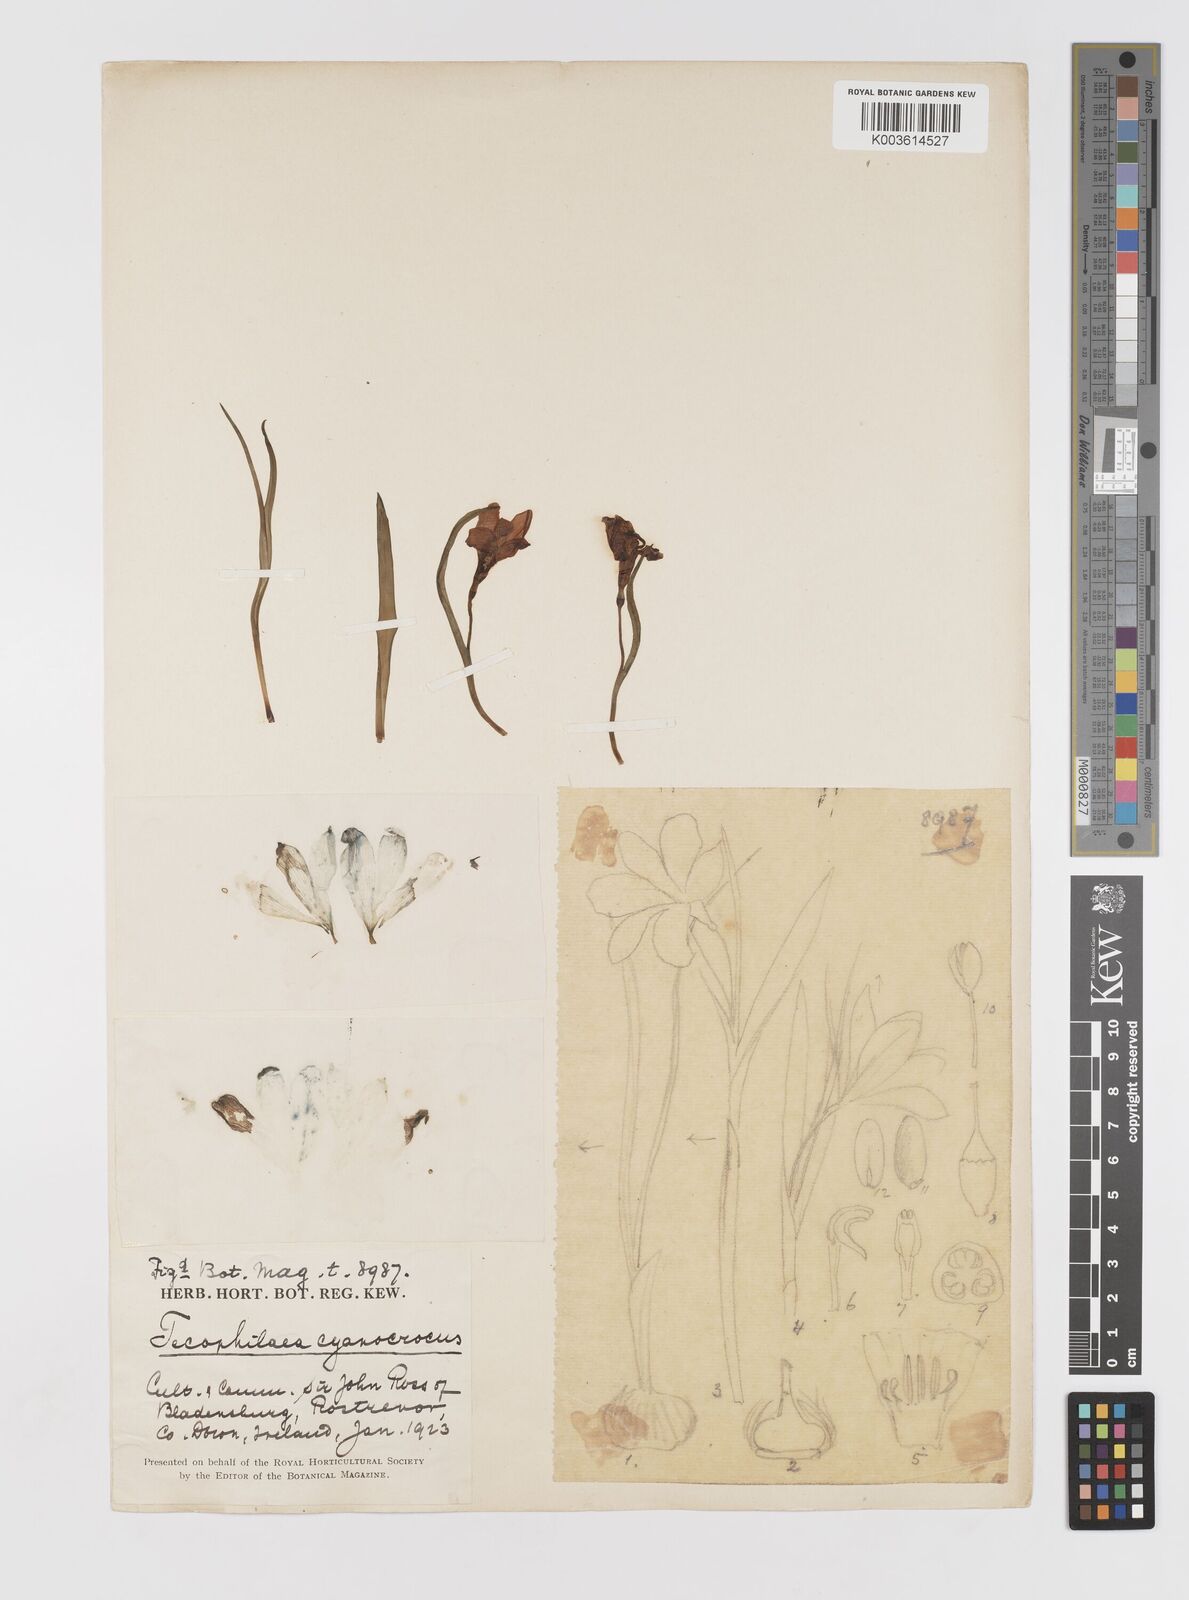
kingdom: Plantae
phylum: Tracheophyta
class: Liliopsida
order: Asparagales
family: Tecophilaeaceae
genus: Tecophilaea
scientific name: Tecophilaea cyanocrocus
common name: Chilean blue-crocus
